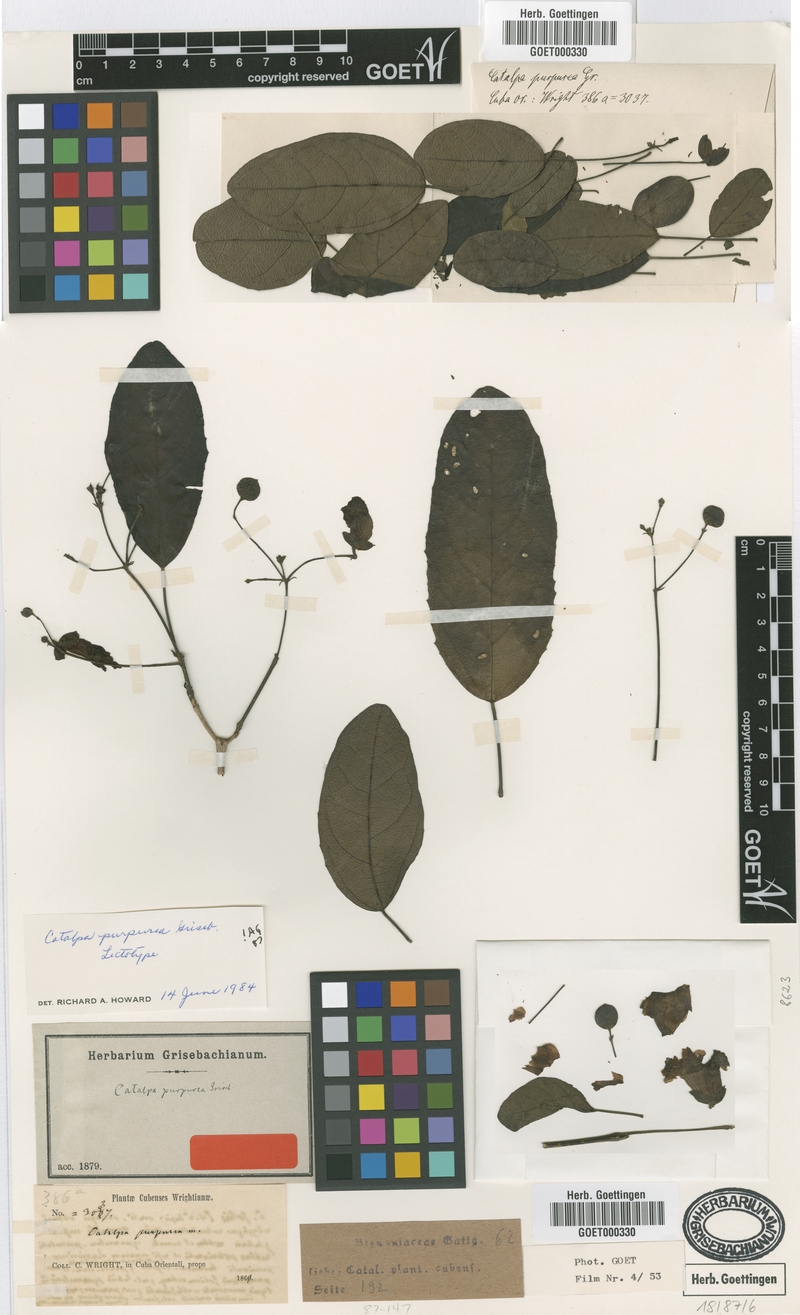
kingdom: Plantae
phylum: Tracheophyta
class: Magnoliopsida
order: Lamiales
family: Bignoniaceae
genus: Catalpa
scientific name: Catalpa purpurea
